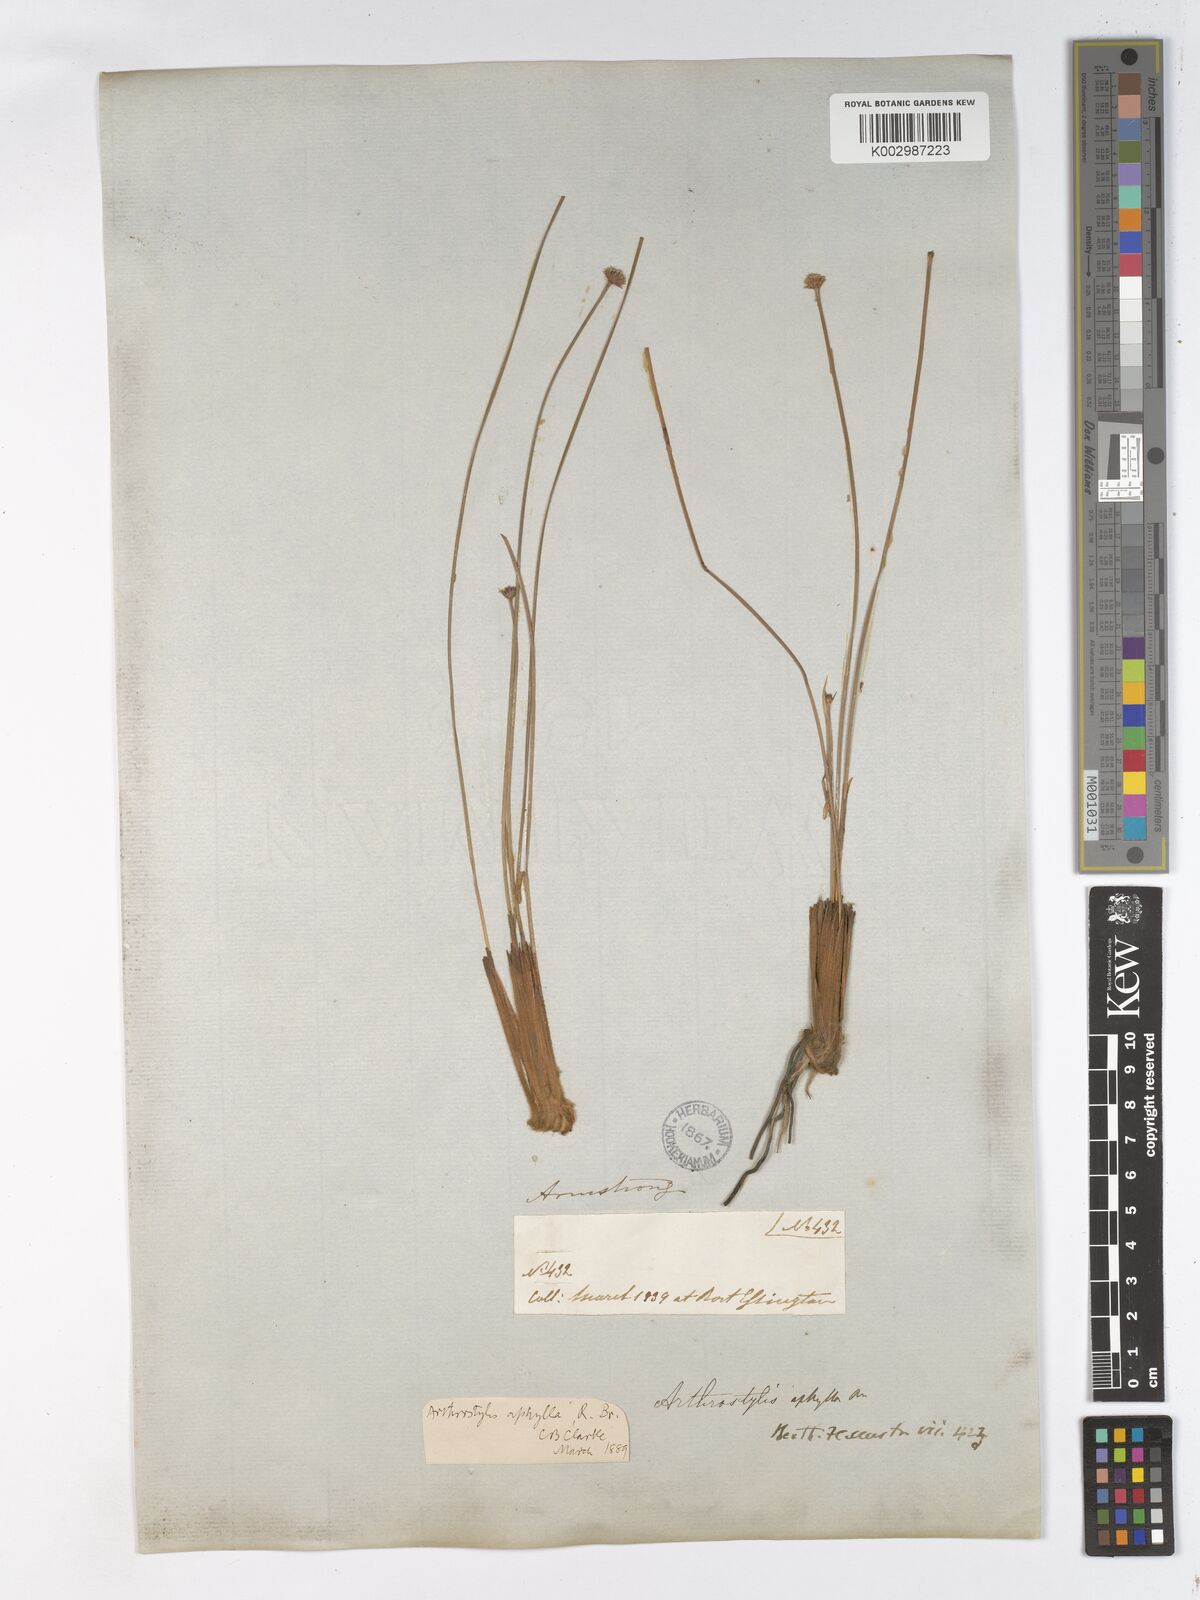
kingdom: Plantae
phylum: Tracheophyta
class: Liliopsida
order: Poales
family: Cyperaceae
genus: Arthrostylis
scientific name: Arthrostylis aphylla
